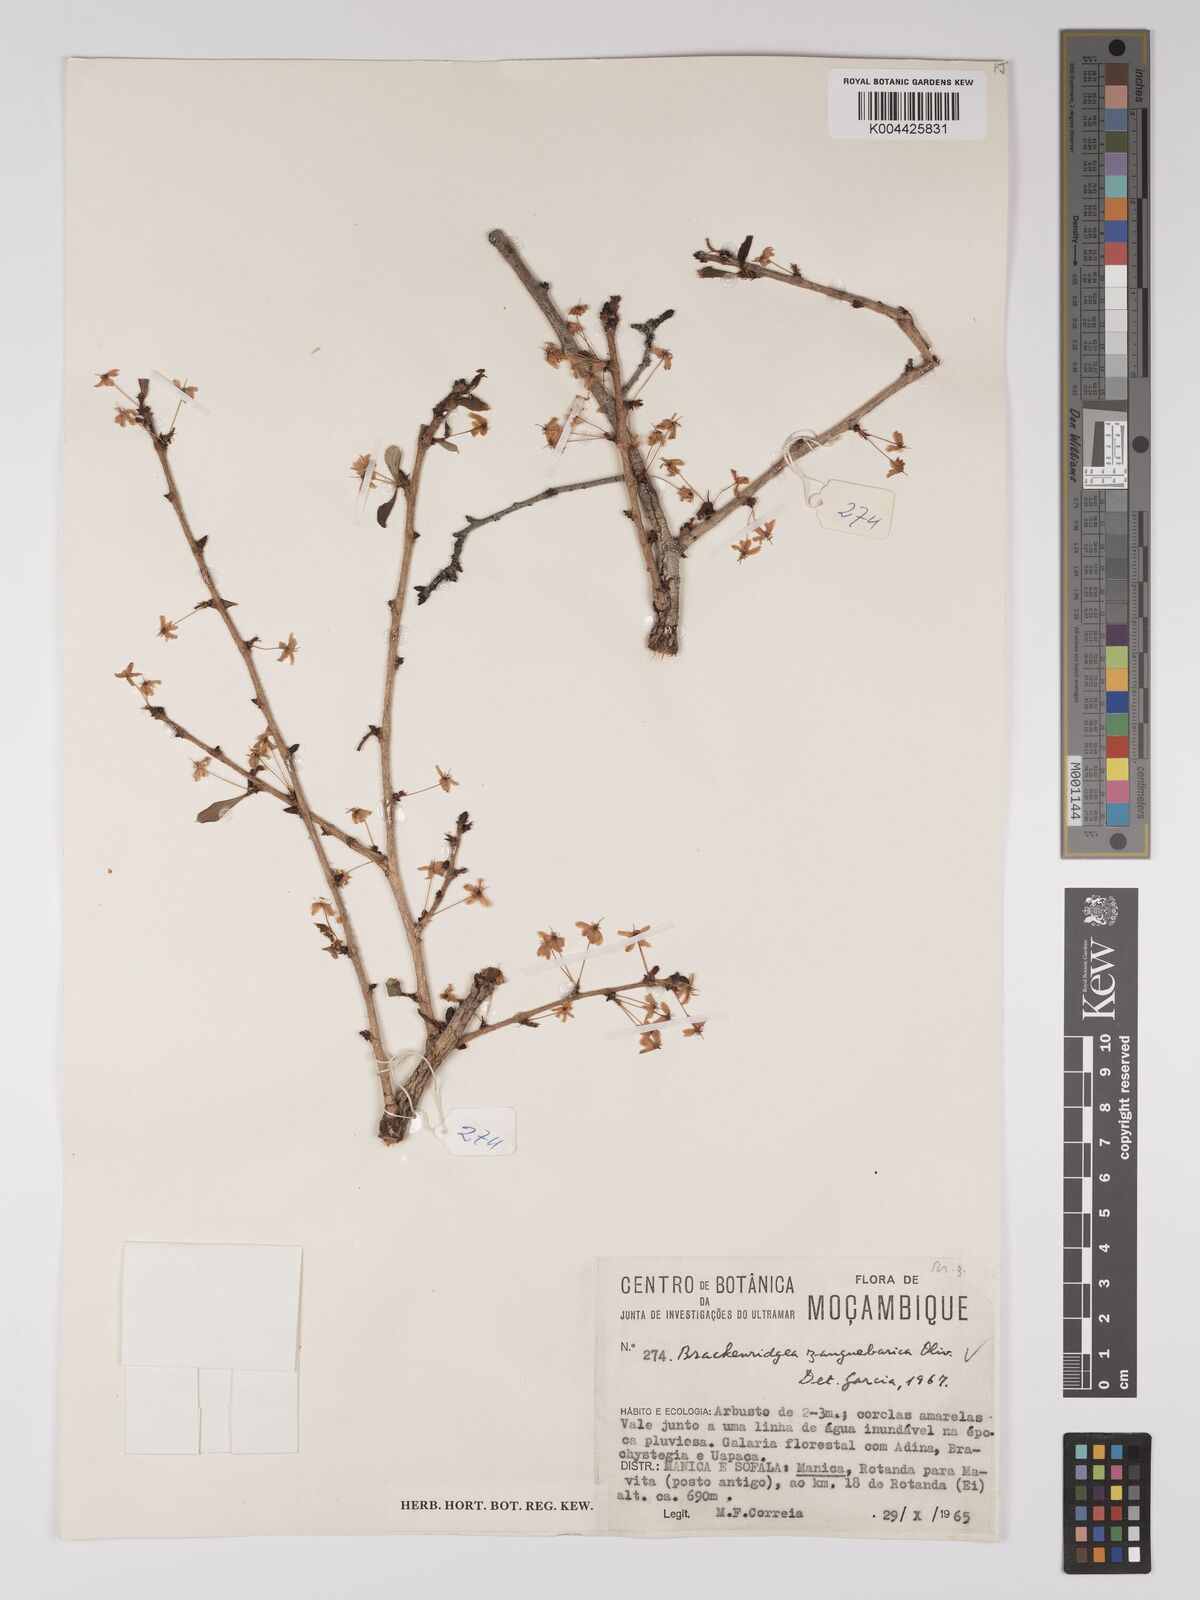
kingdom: Plantae
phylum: Tracheophyta
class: Magnoliopsida
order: Malpighiales
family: Ochnaceae
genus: Brackenridgea
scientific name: Brackenridgea zanguebarica
